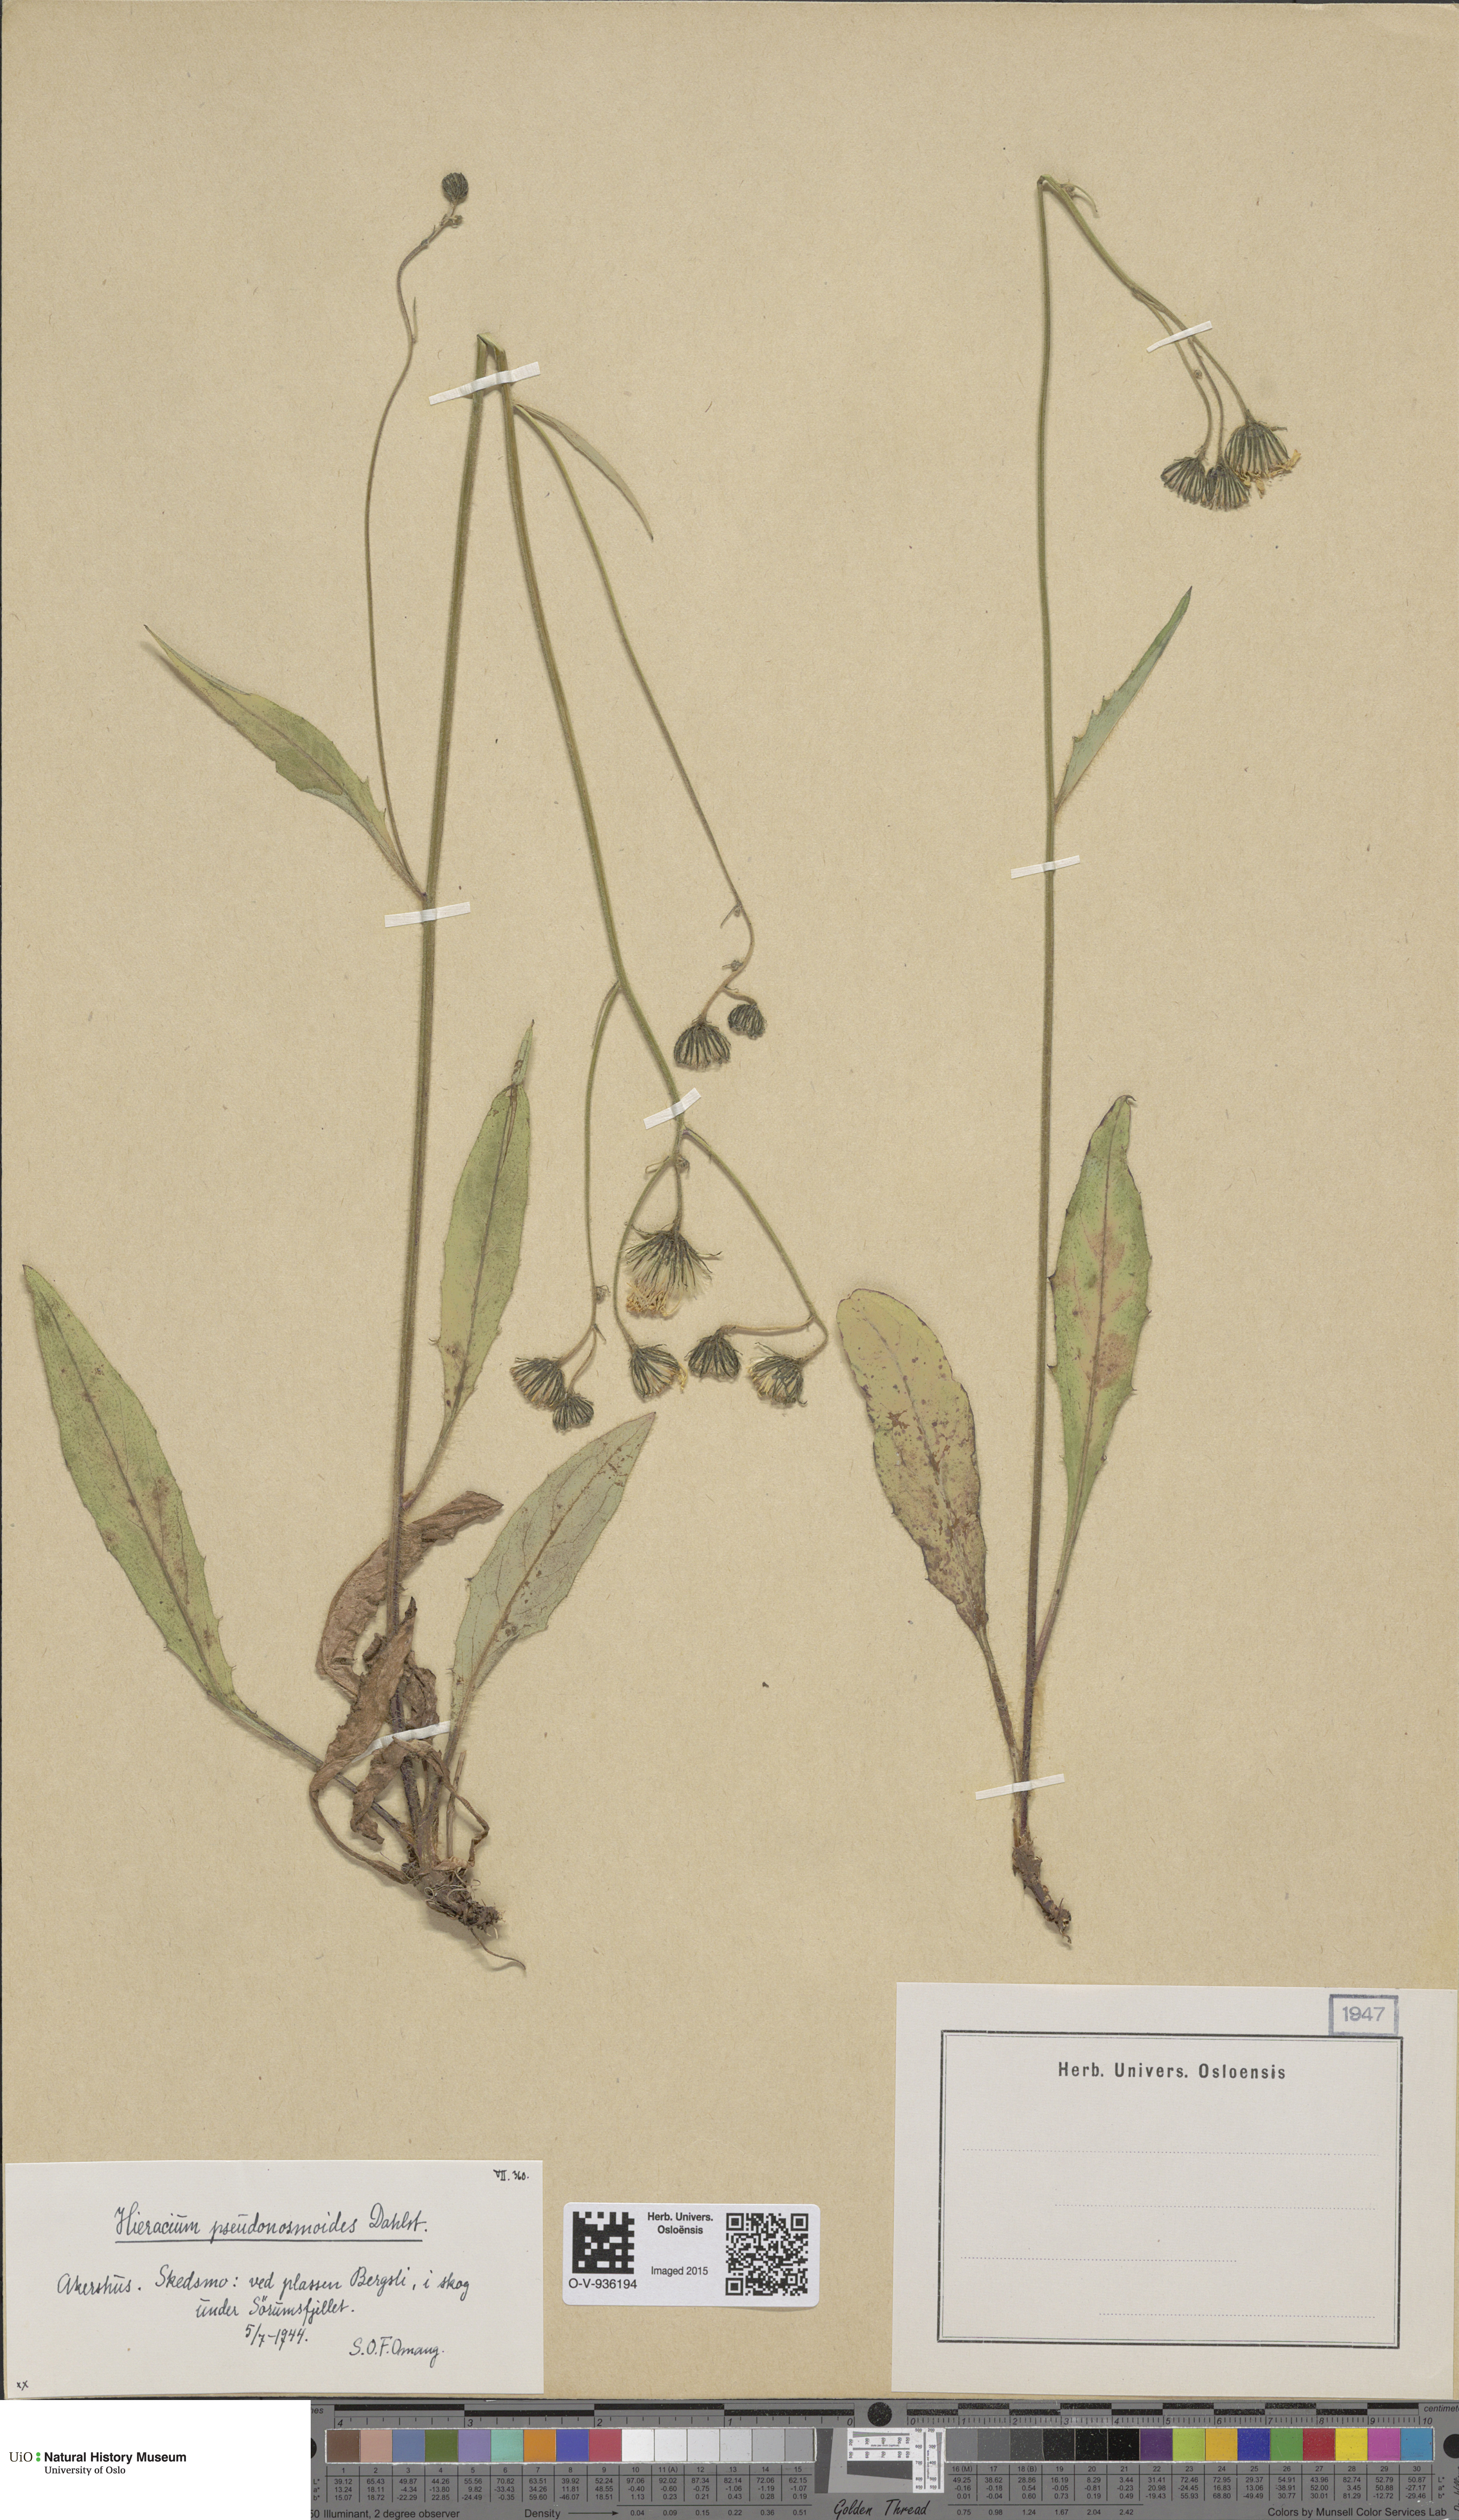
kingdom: Plantae
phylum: Tracheophyta
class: Magnoliopsida
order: Asterales
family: Asteraceae
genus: Hieracium
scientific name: Hieracium saxifragum
